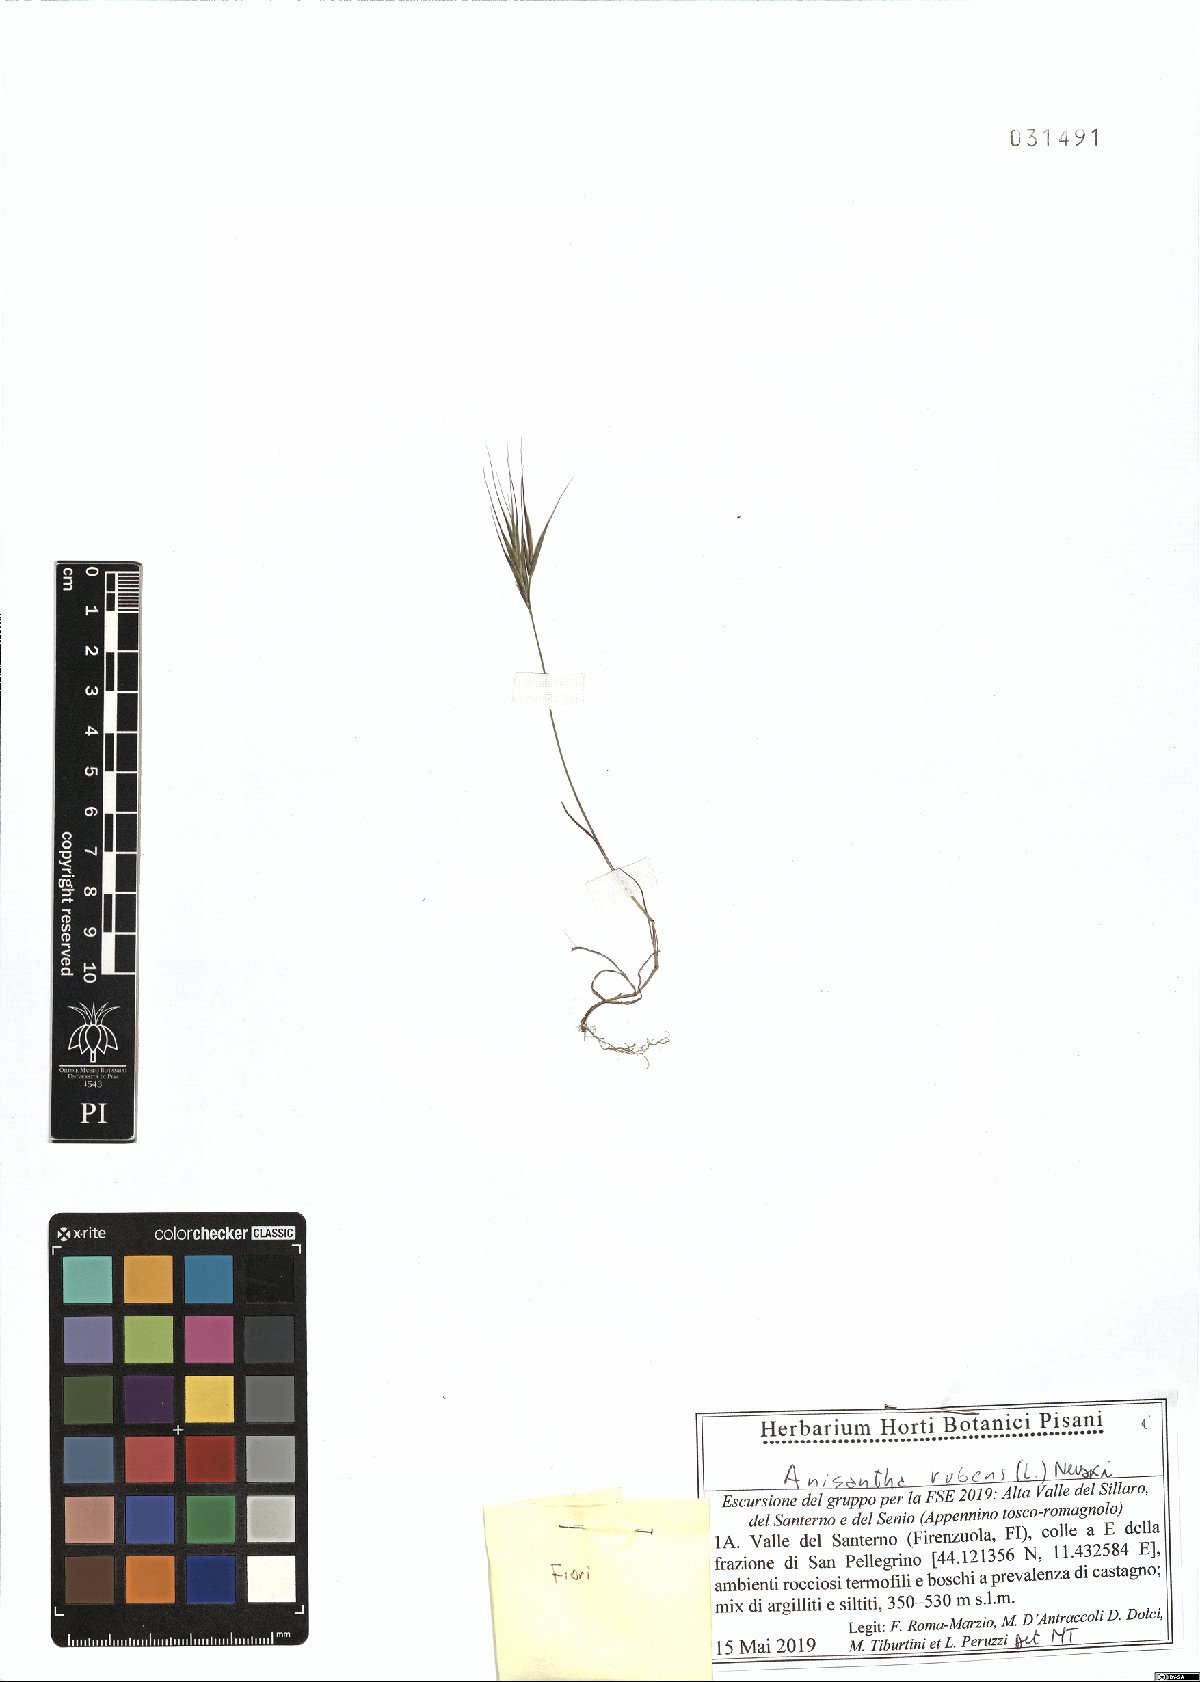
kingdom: Plantae
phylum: Tracheophyta
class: Liliopsida
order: Poales
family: Poaceae
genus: Bromus
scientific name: Bromus rubens
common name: Red brome
